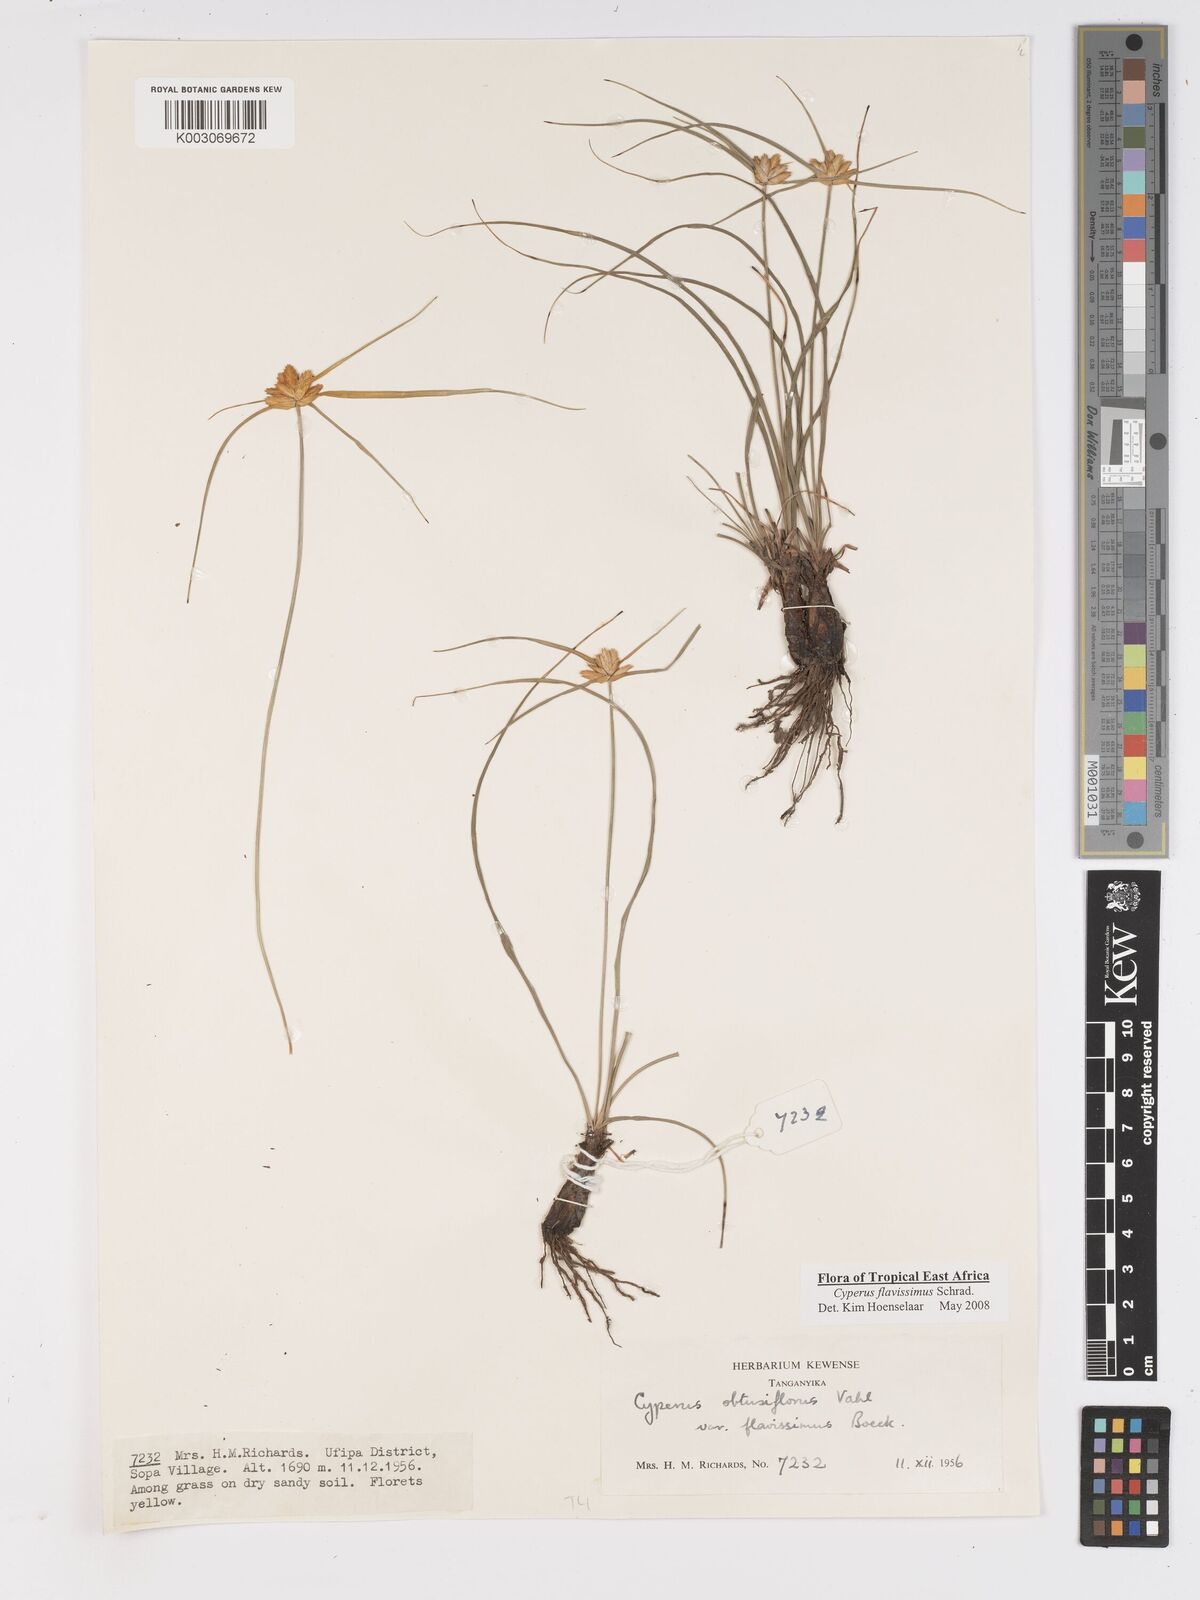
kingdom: Plantae
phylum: Tracheophyta
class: Liliopsida
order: Poales
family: Cyperaceae
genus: Cyperus
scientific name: Cyperus sphaerocephalus
